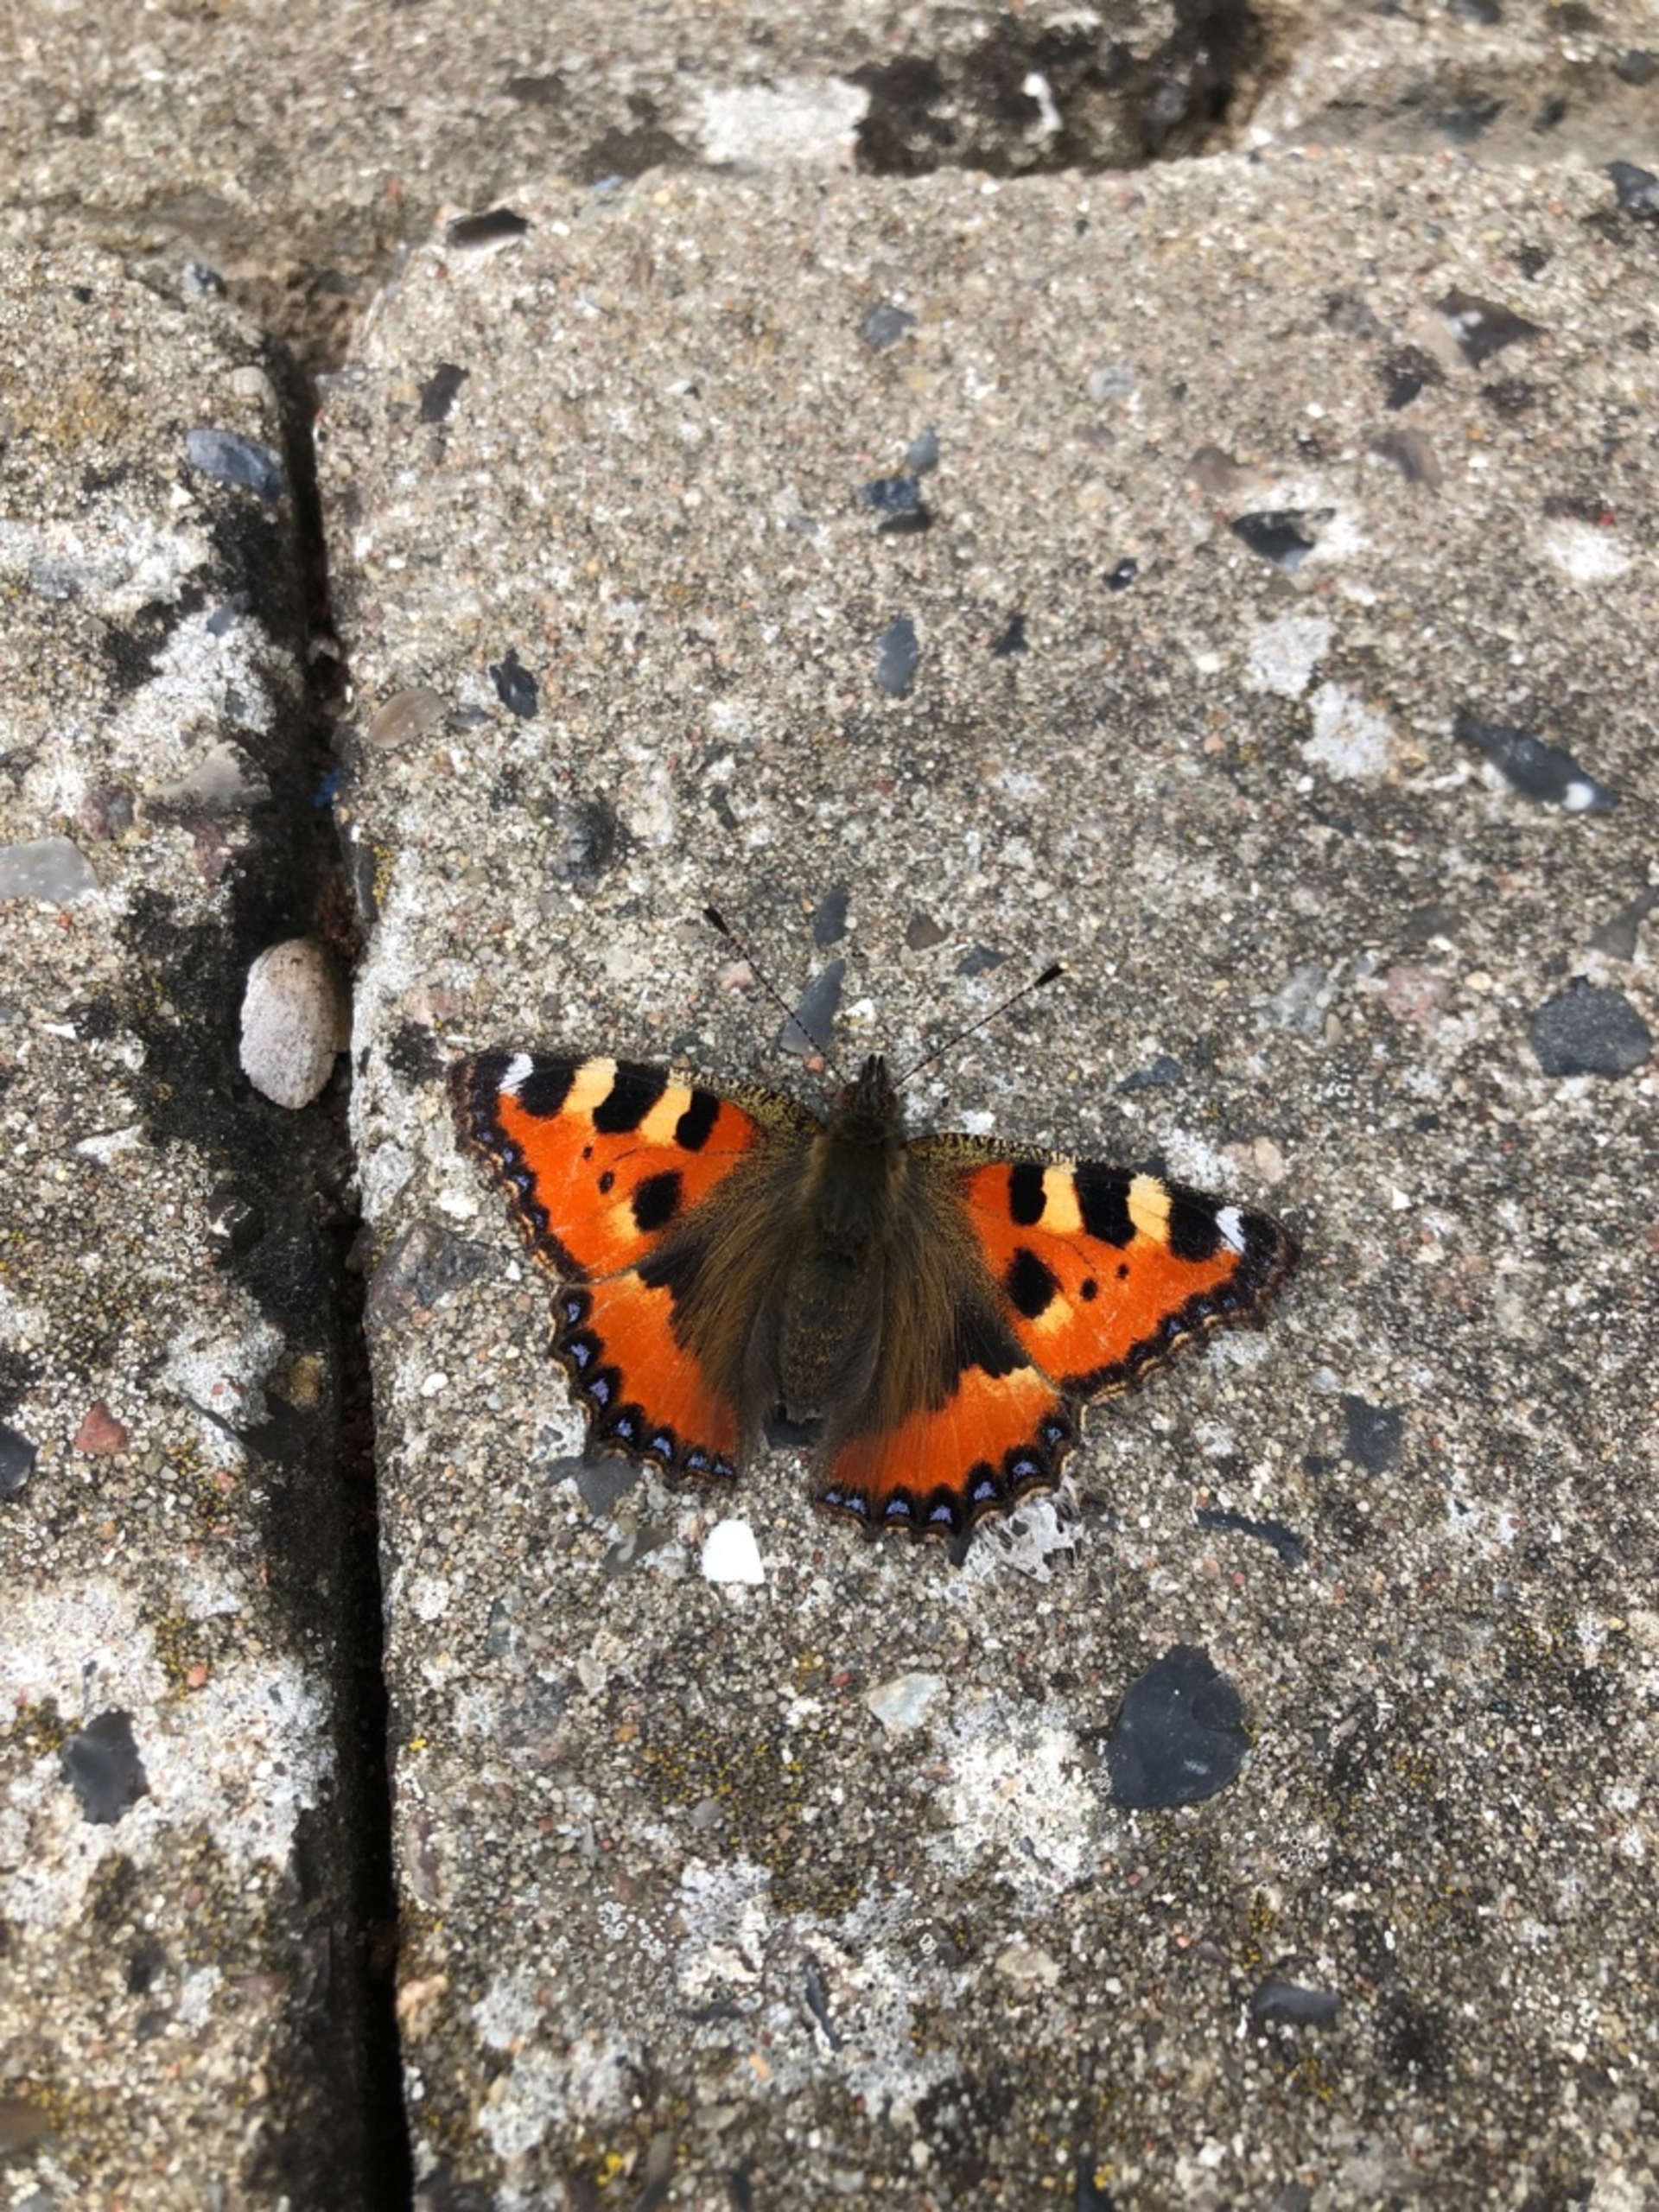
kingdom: Animalia
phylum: Arthropoda
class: Insecta
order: Lepidoptera
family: Nymphalidae
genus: Aglais
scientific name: Aglais urticae
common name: Nældens takvinge
